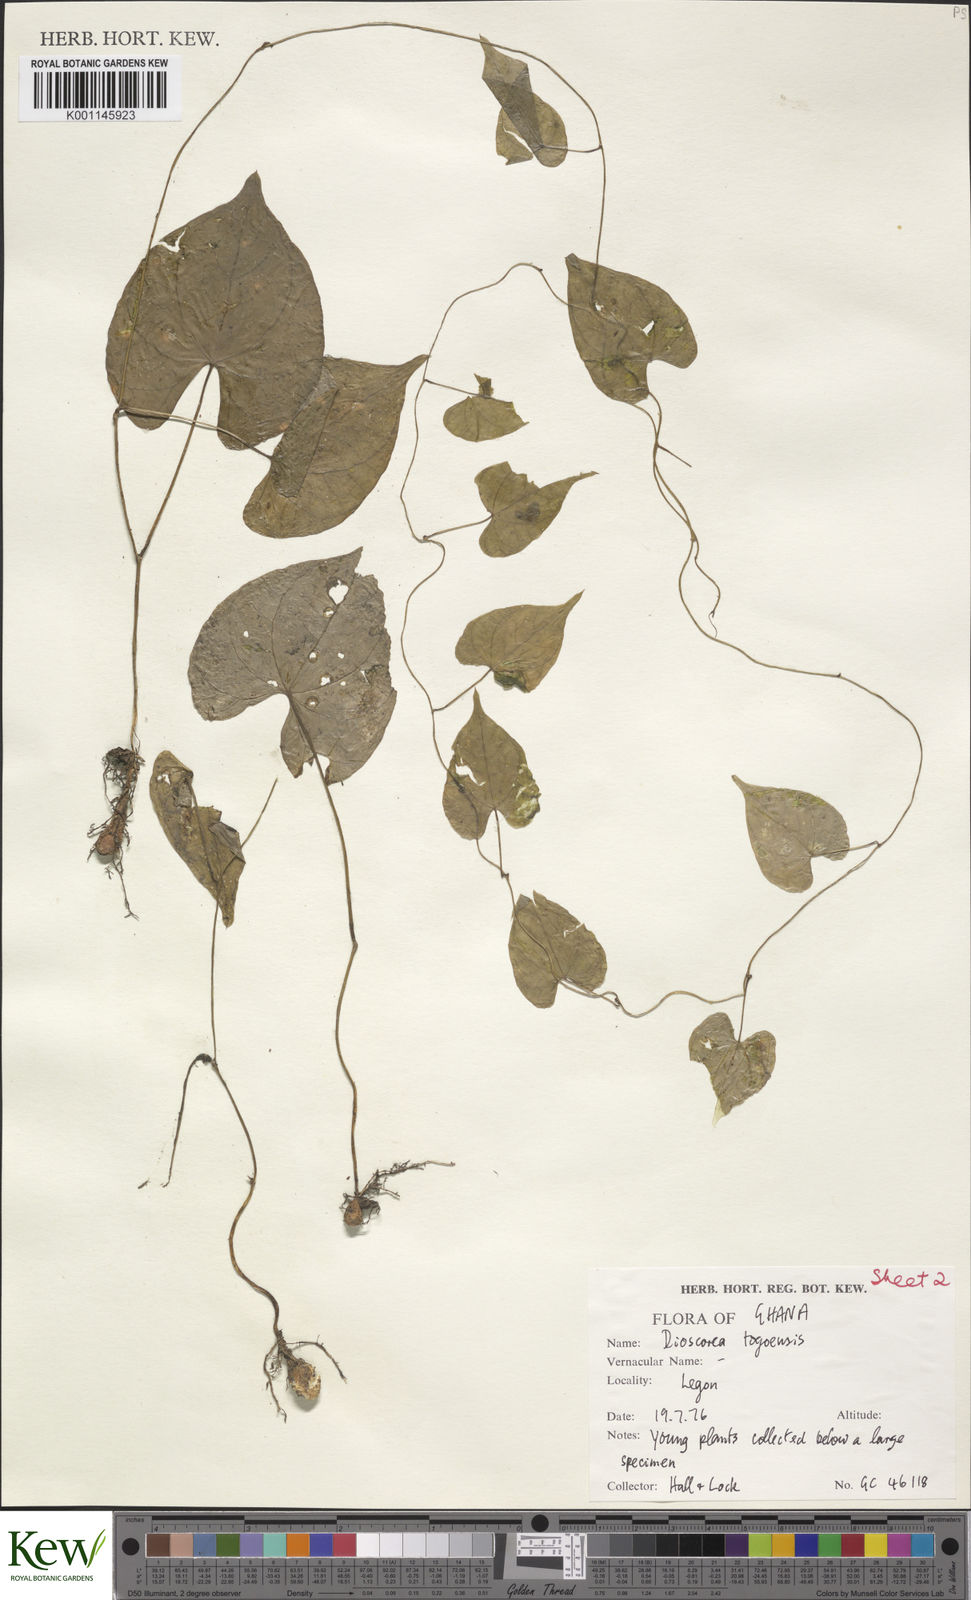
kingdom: Plantae
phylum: Tracheophyta
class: Liliopsida
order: Dioscoreales
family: Dioscoreaceae
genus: Dioscorea
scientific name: Dioscorea togoensis
